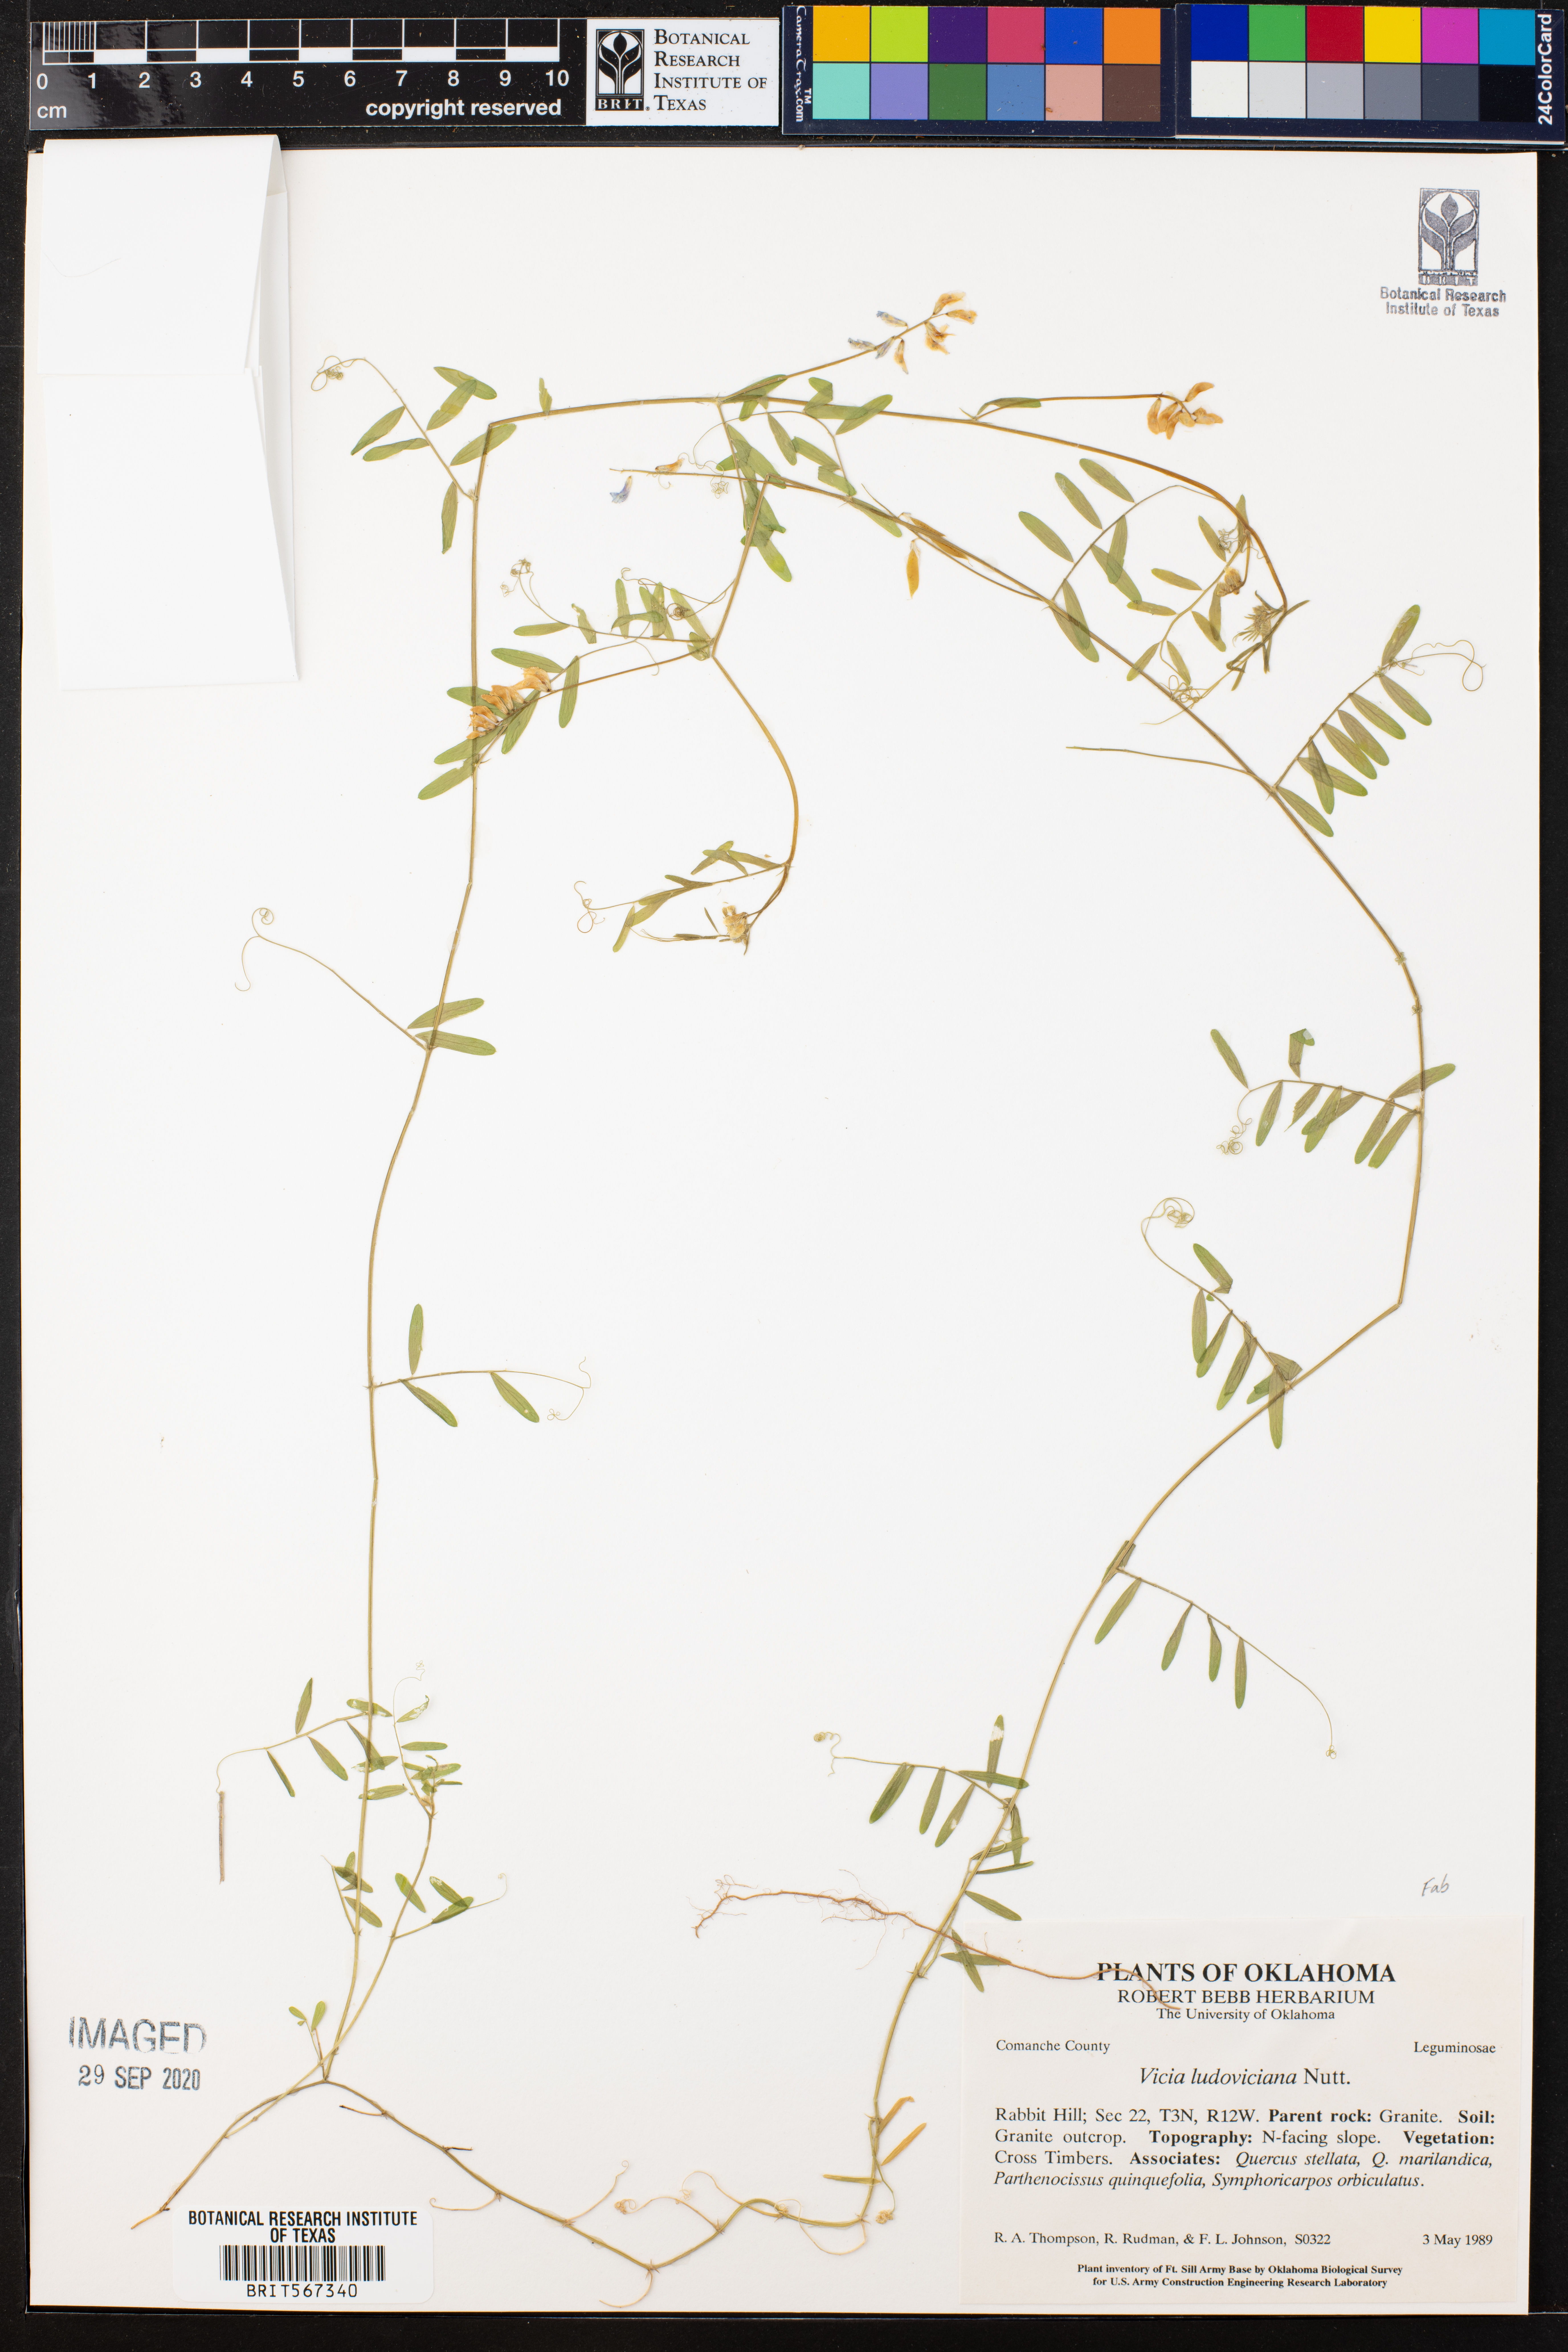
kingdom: Plantae
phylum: Tracheophyta
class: Magnoliopsida
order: Fabales
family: Fabaceae
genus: Vicia
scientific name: Vicia ludoviciana
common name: Louisiana vetch
